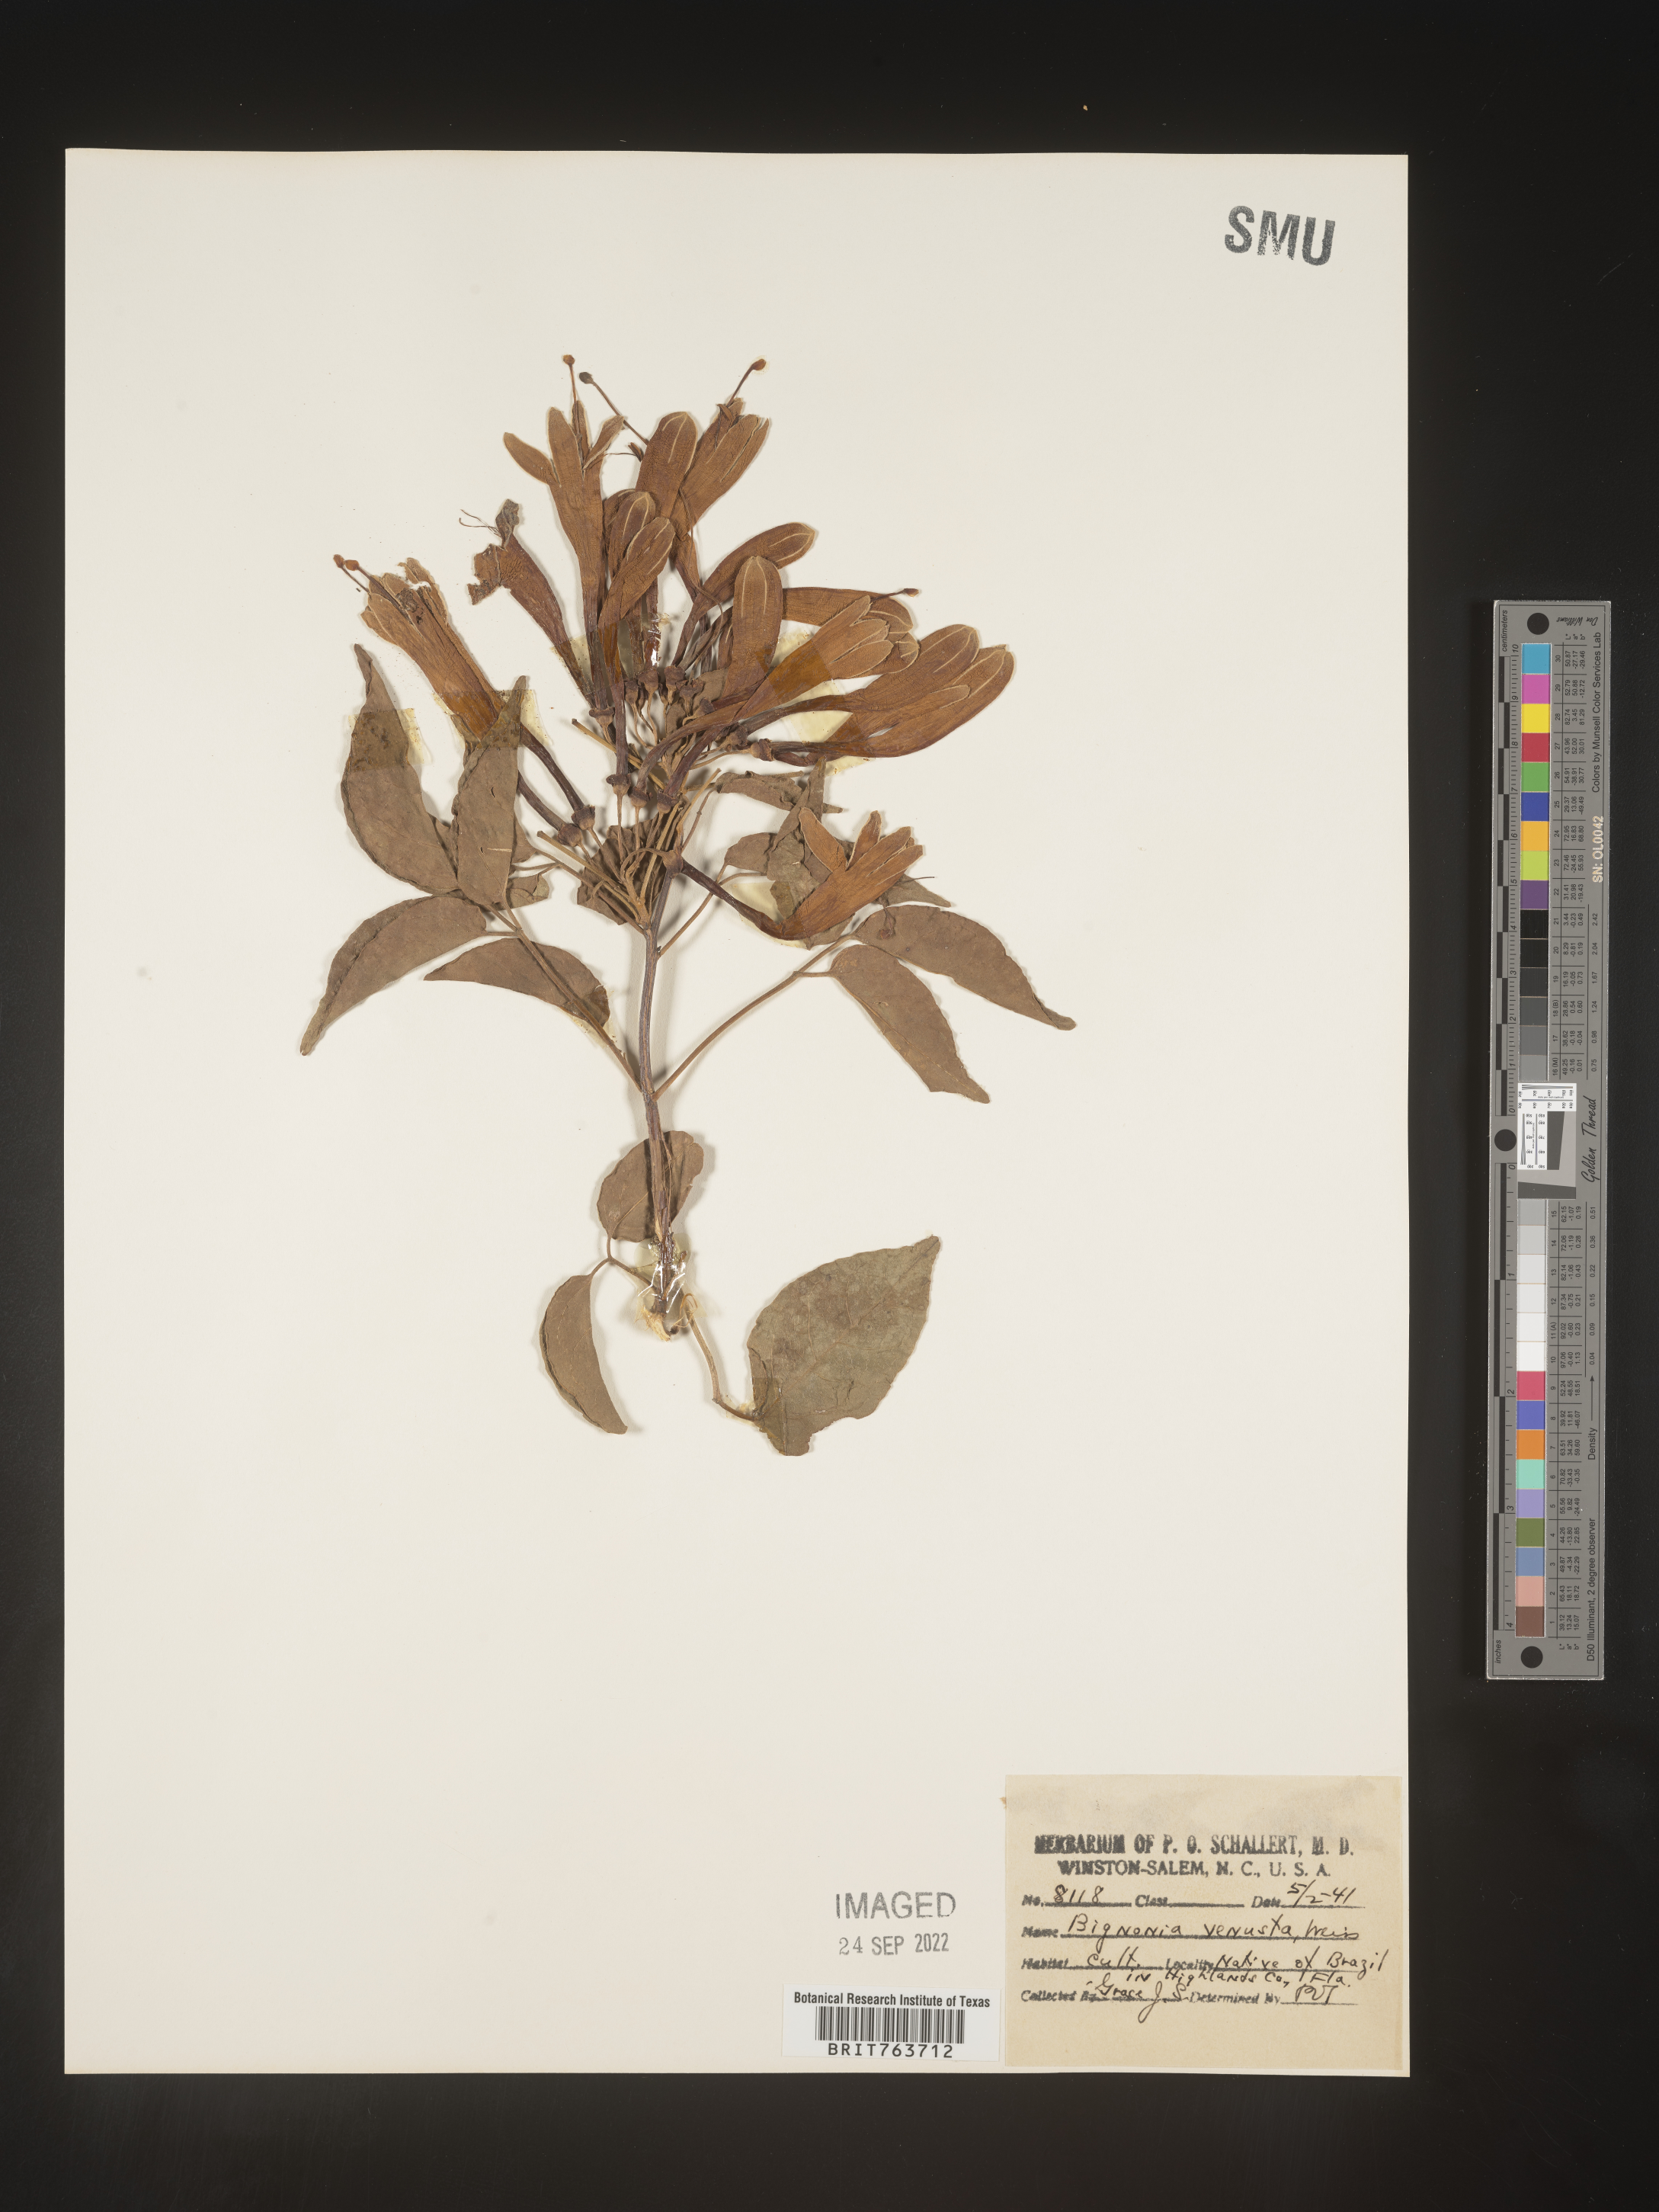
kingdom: Plantae
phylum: Tracheophyta
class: Magnoliopsida
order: Lamiales
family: Bignoniaceae
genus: Pyrostegia
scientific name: Pyrostegia
